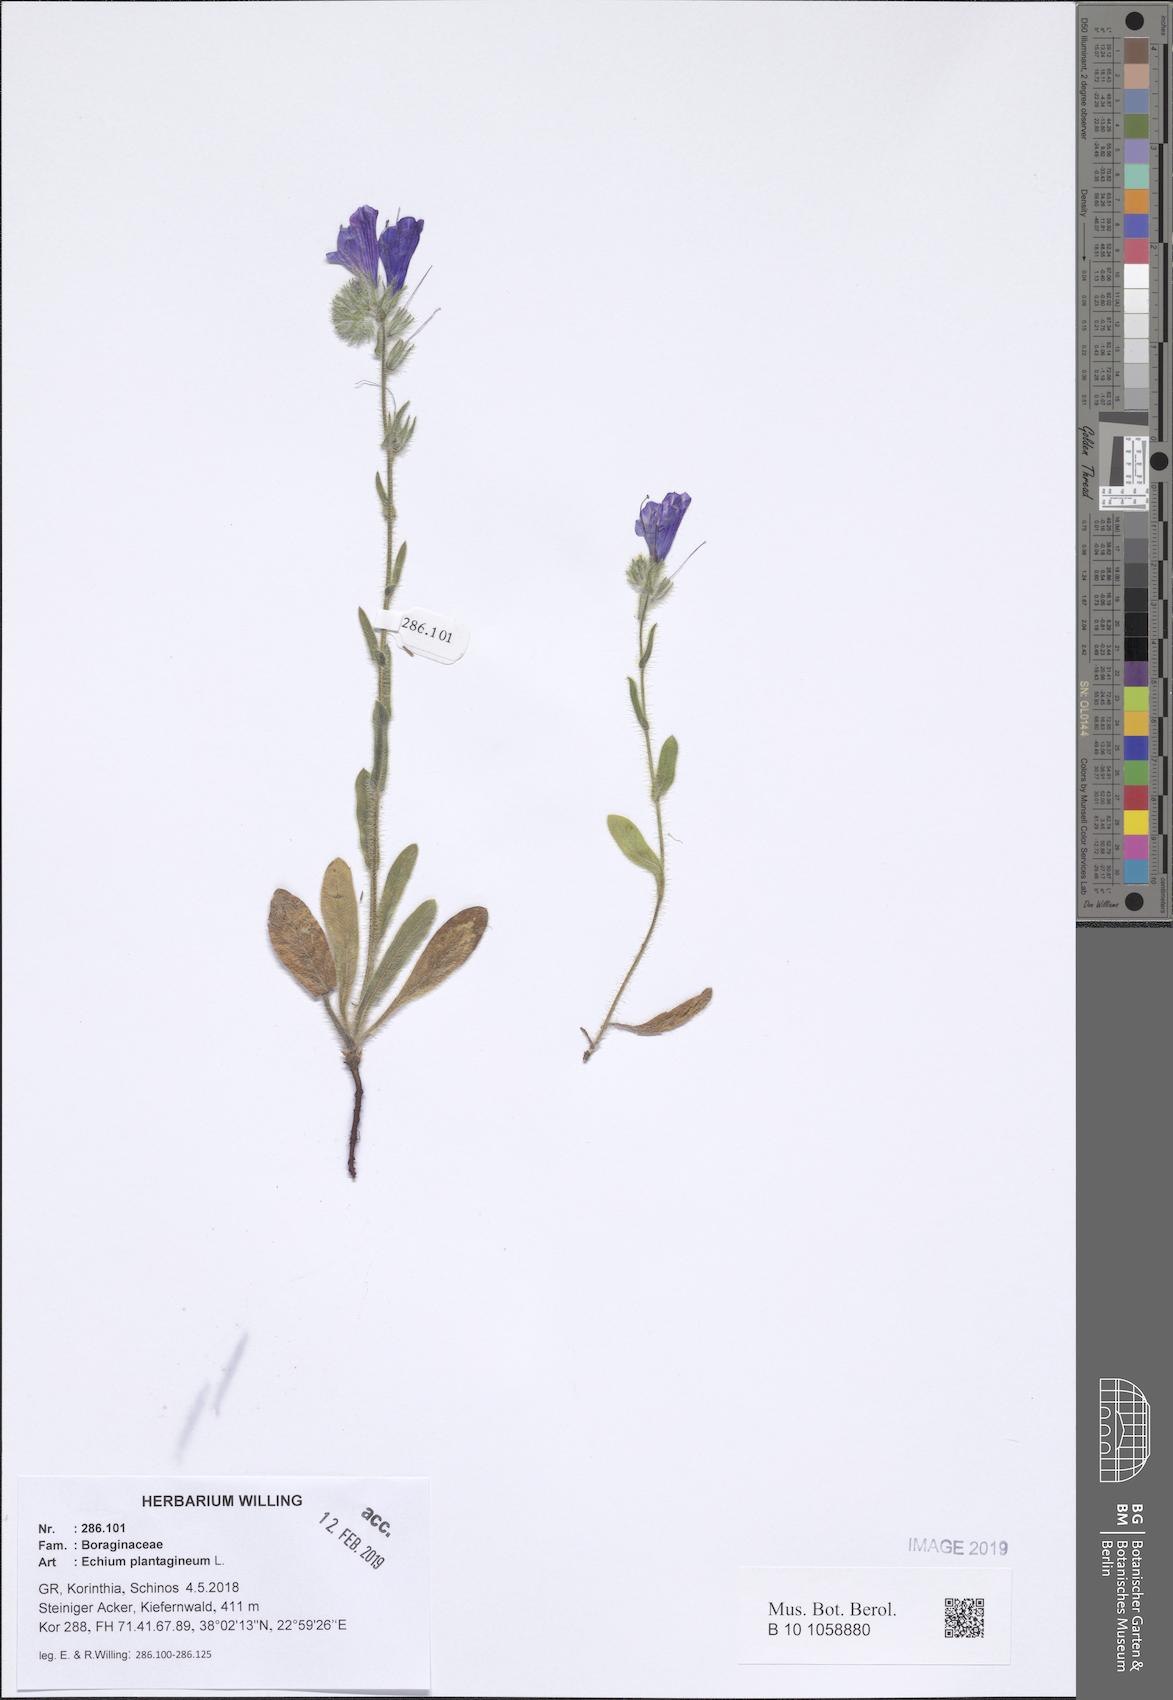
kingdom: Plantae
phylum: Tracheophyta
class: Magnoliopsida
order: Boraginales
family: Boraginaceae
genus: Echium
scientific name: Echium plantagineum
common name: Purple viper's-bugloss
